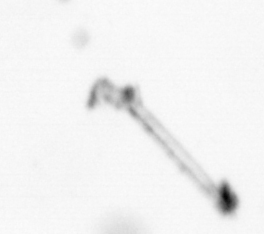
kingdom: Chromista
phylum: Ochrophyta
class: Bacillariophyceae
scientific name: Bacillariophyceae
